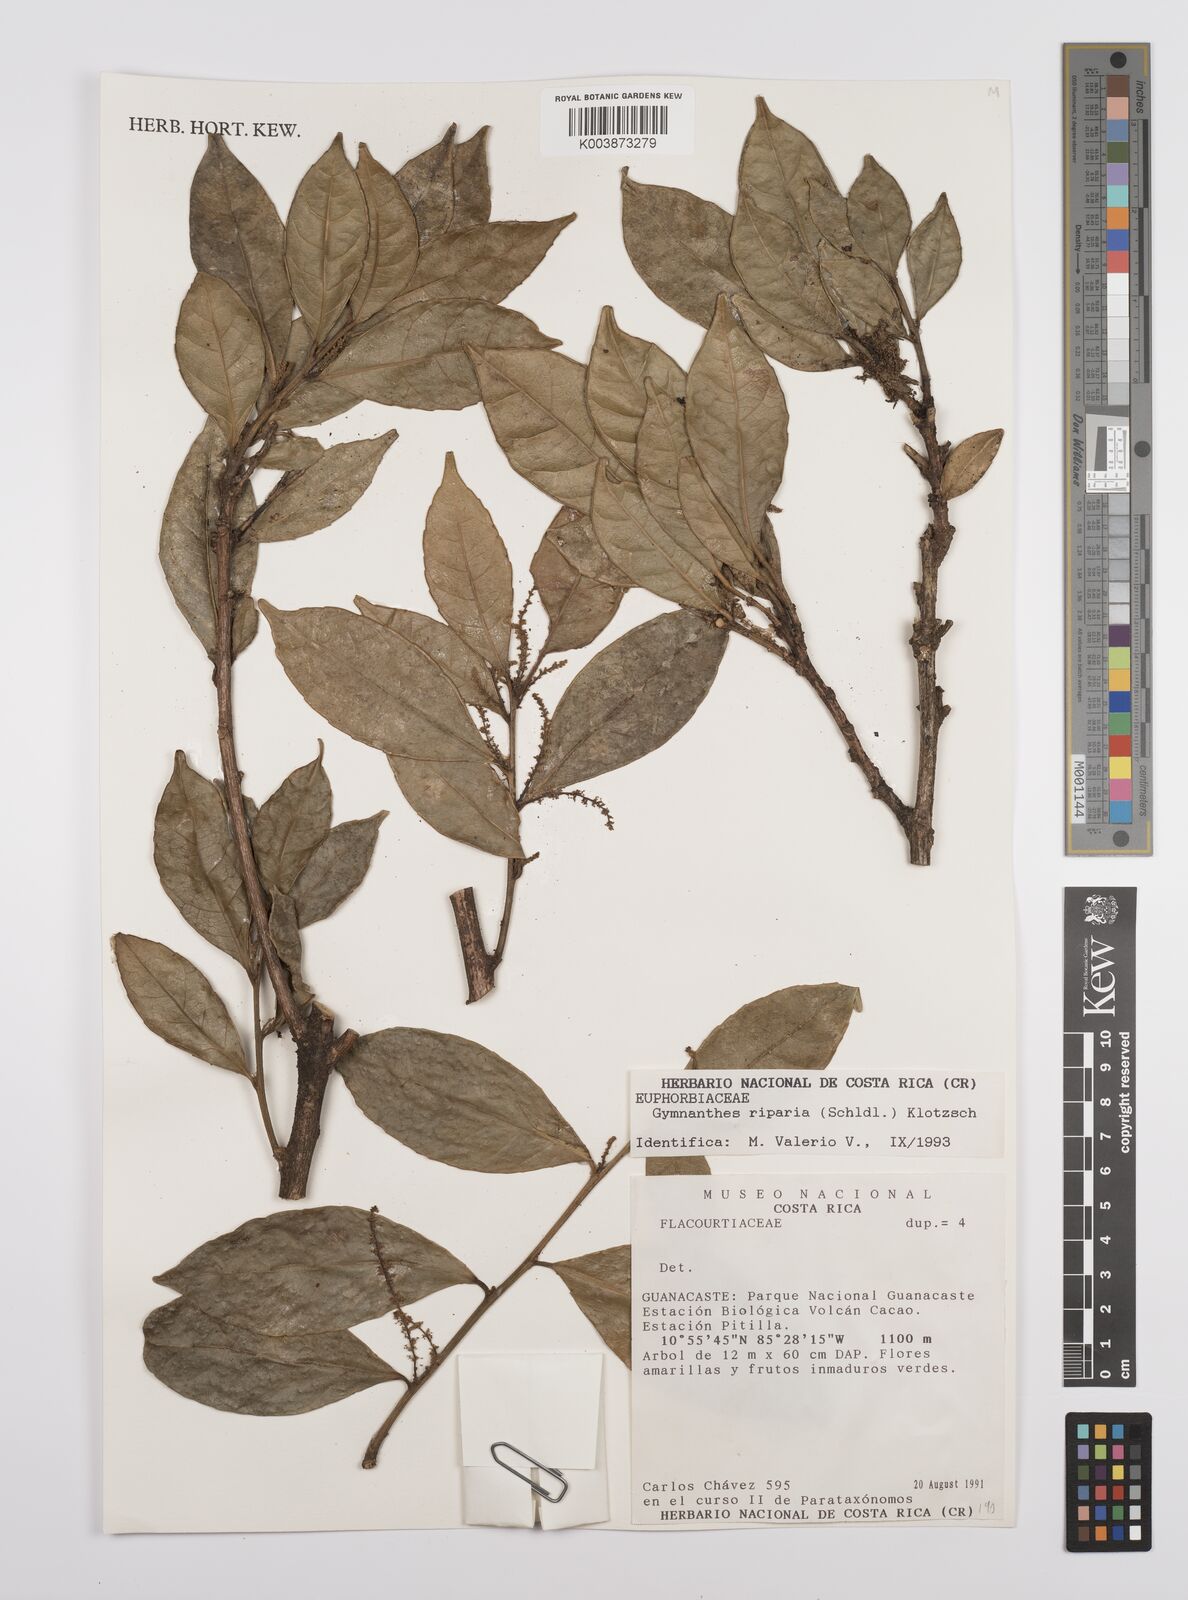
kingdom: Plantae
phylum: Tracheophyta
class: Magnoliopsida
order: Malpighiales
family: Euphorbiaceae
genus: Gymnanthes
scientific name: Gymnanthes riparia
